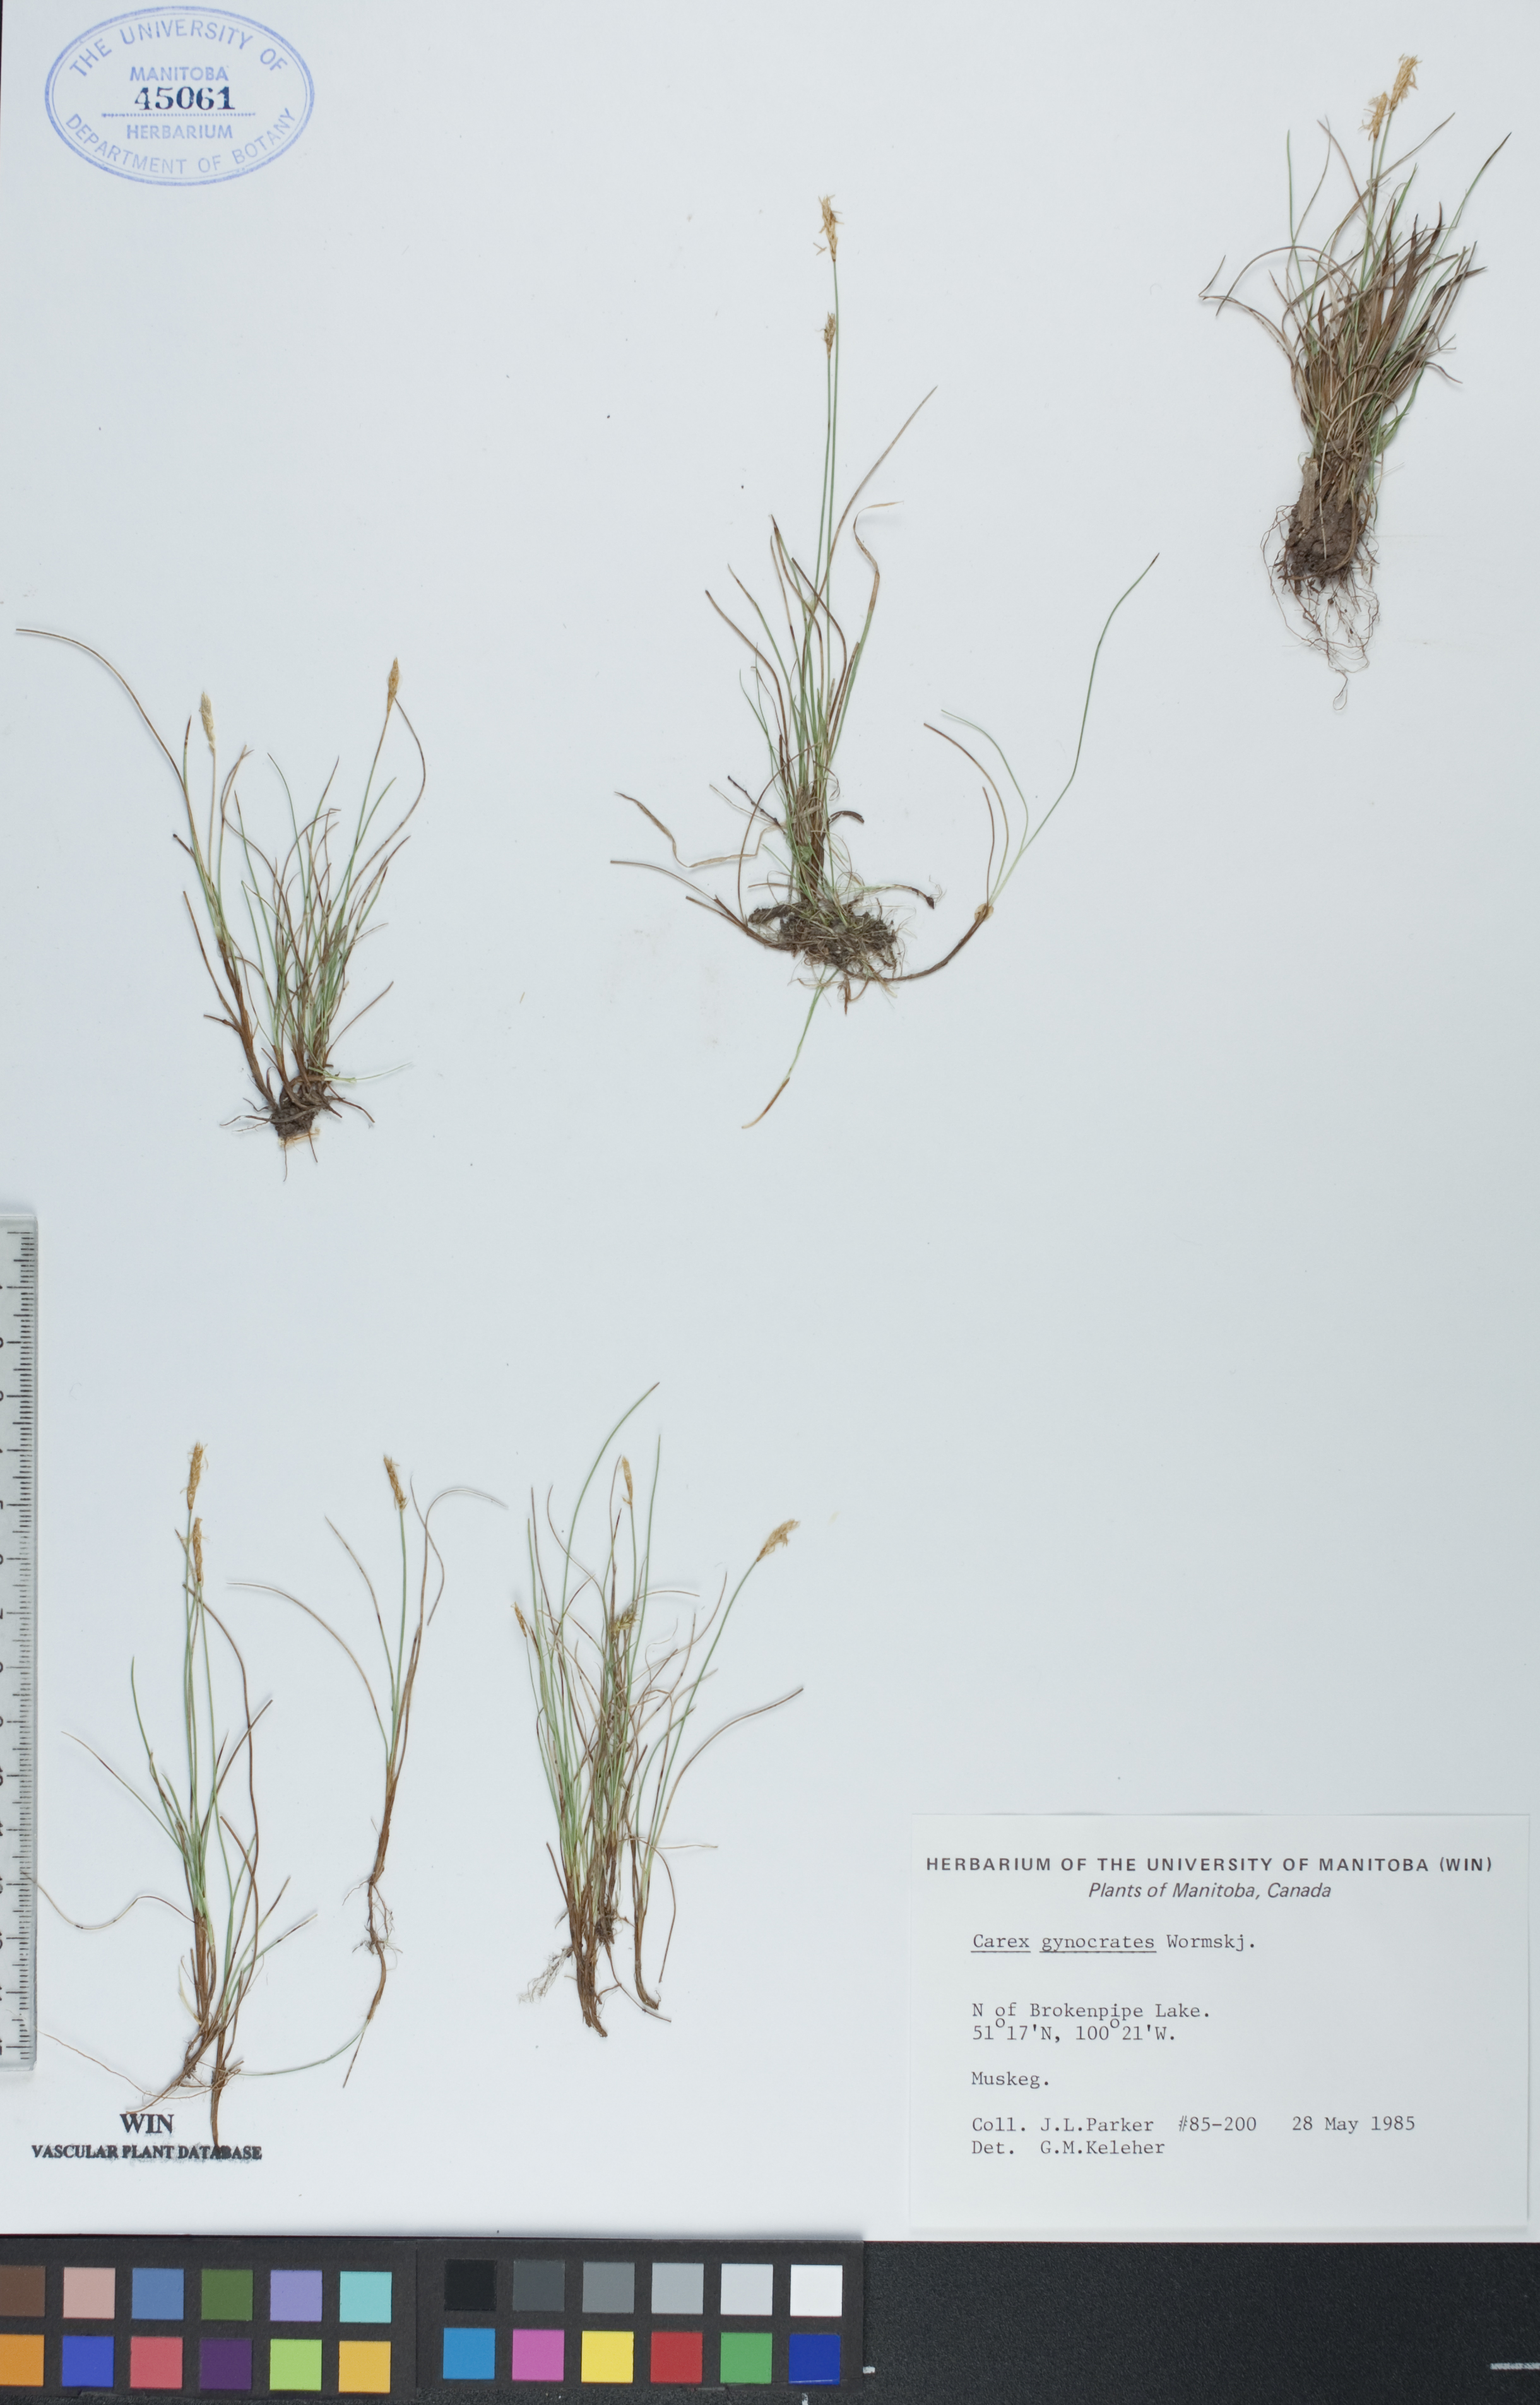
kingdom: Plantae
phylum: Tracheophyta
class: Liliopsida
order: Poales
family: Cyperaceae
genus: Carex
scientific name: Carex nardina
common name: Nard sedge
